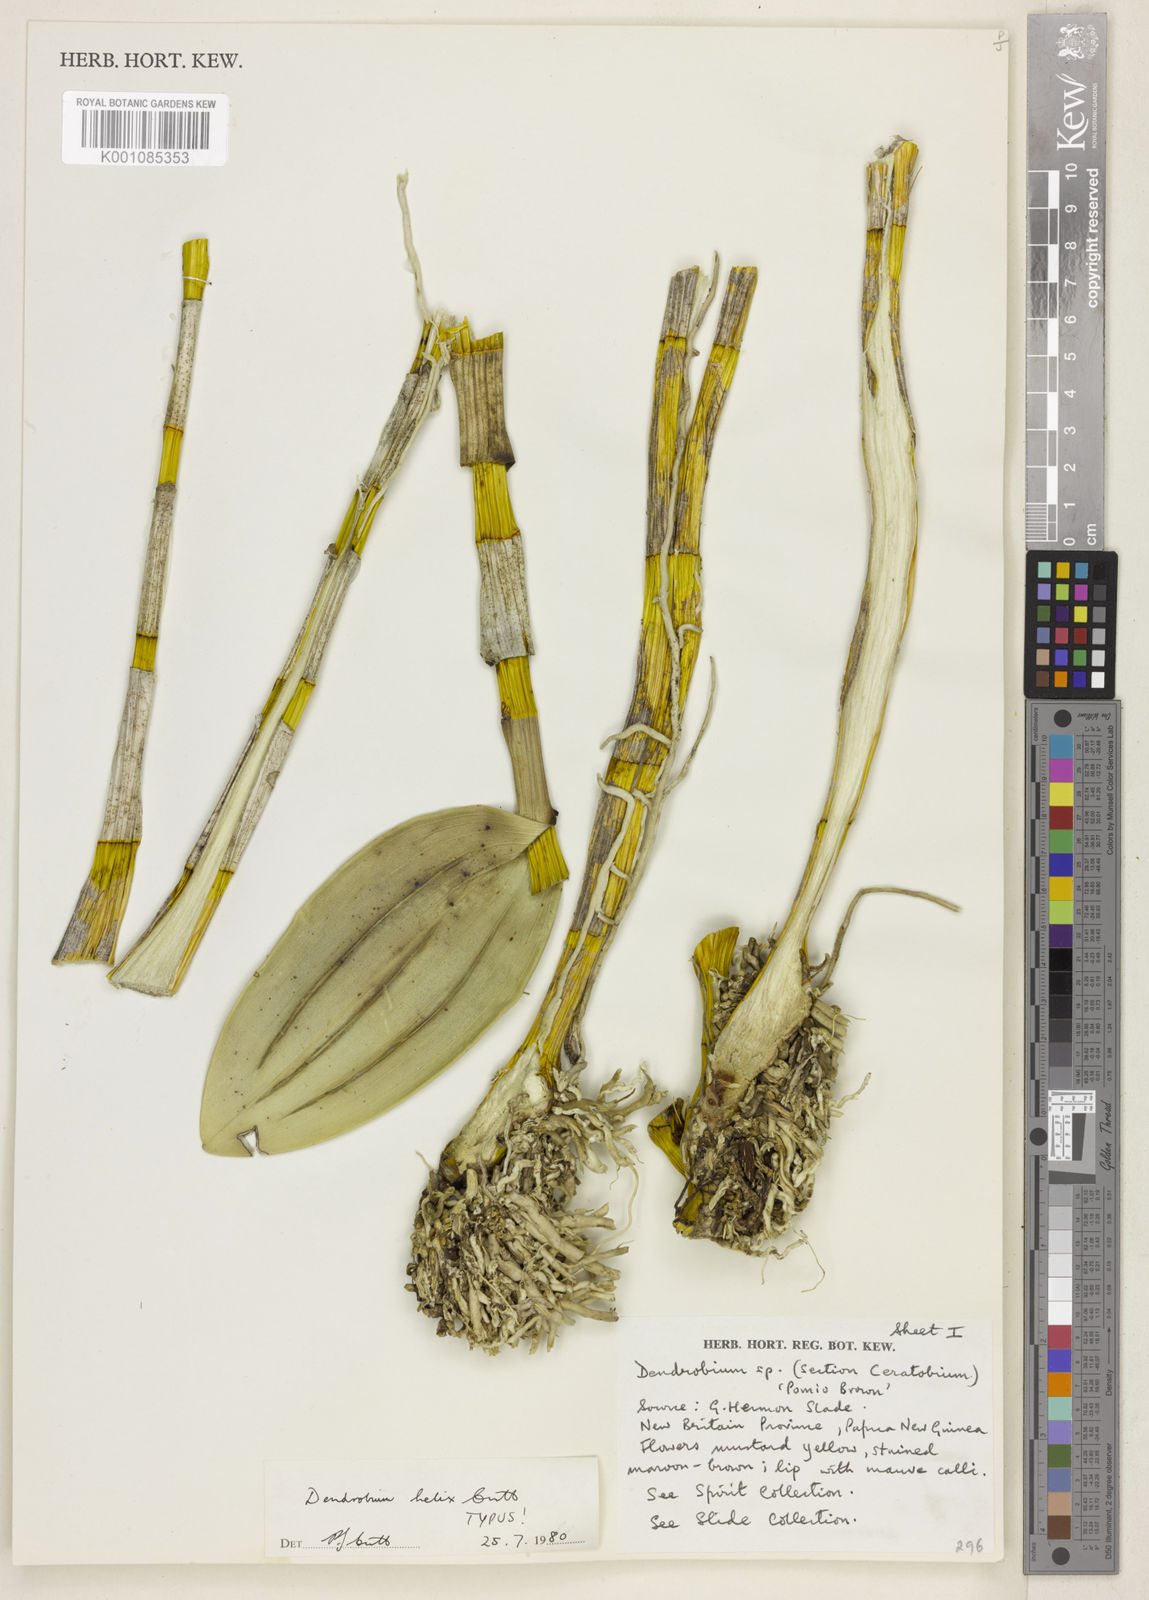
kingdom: Plantae
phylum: Tracheophyta
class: Liliopsida
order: Asparagales
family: Orchidaceae
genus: Dendrobium
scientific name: Dendrobium helix
